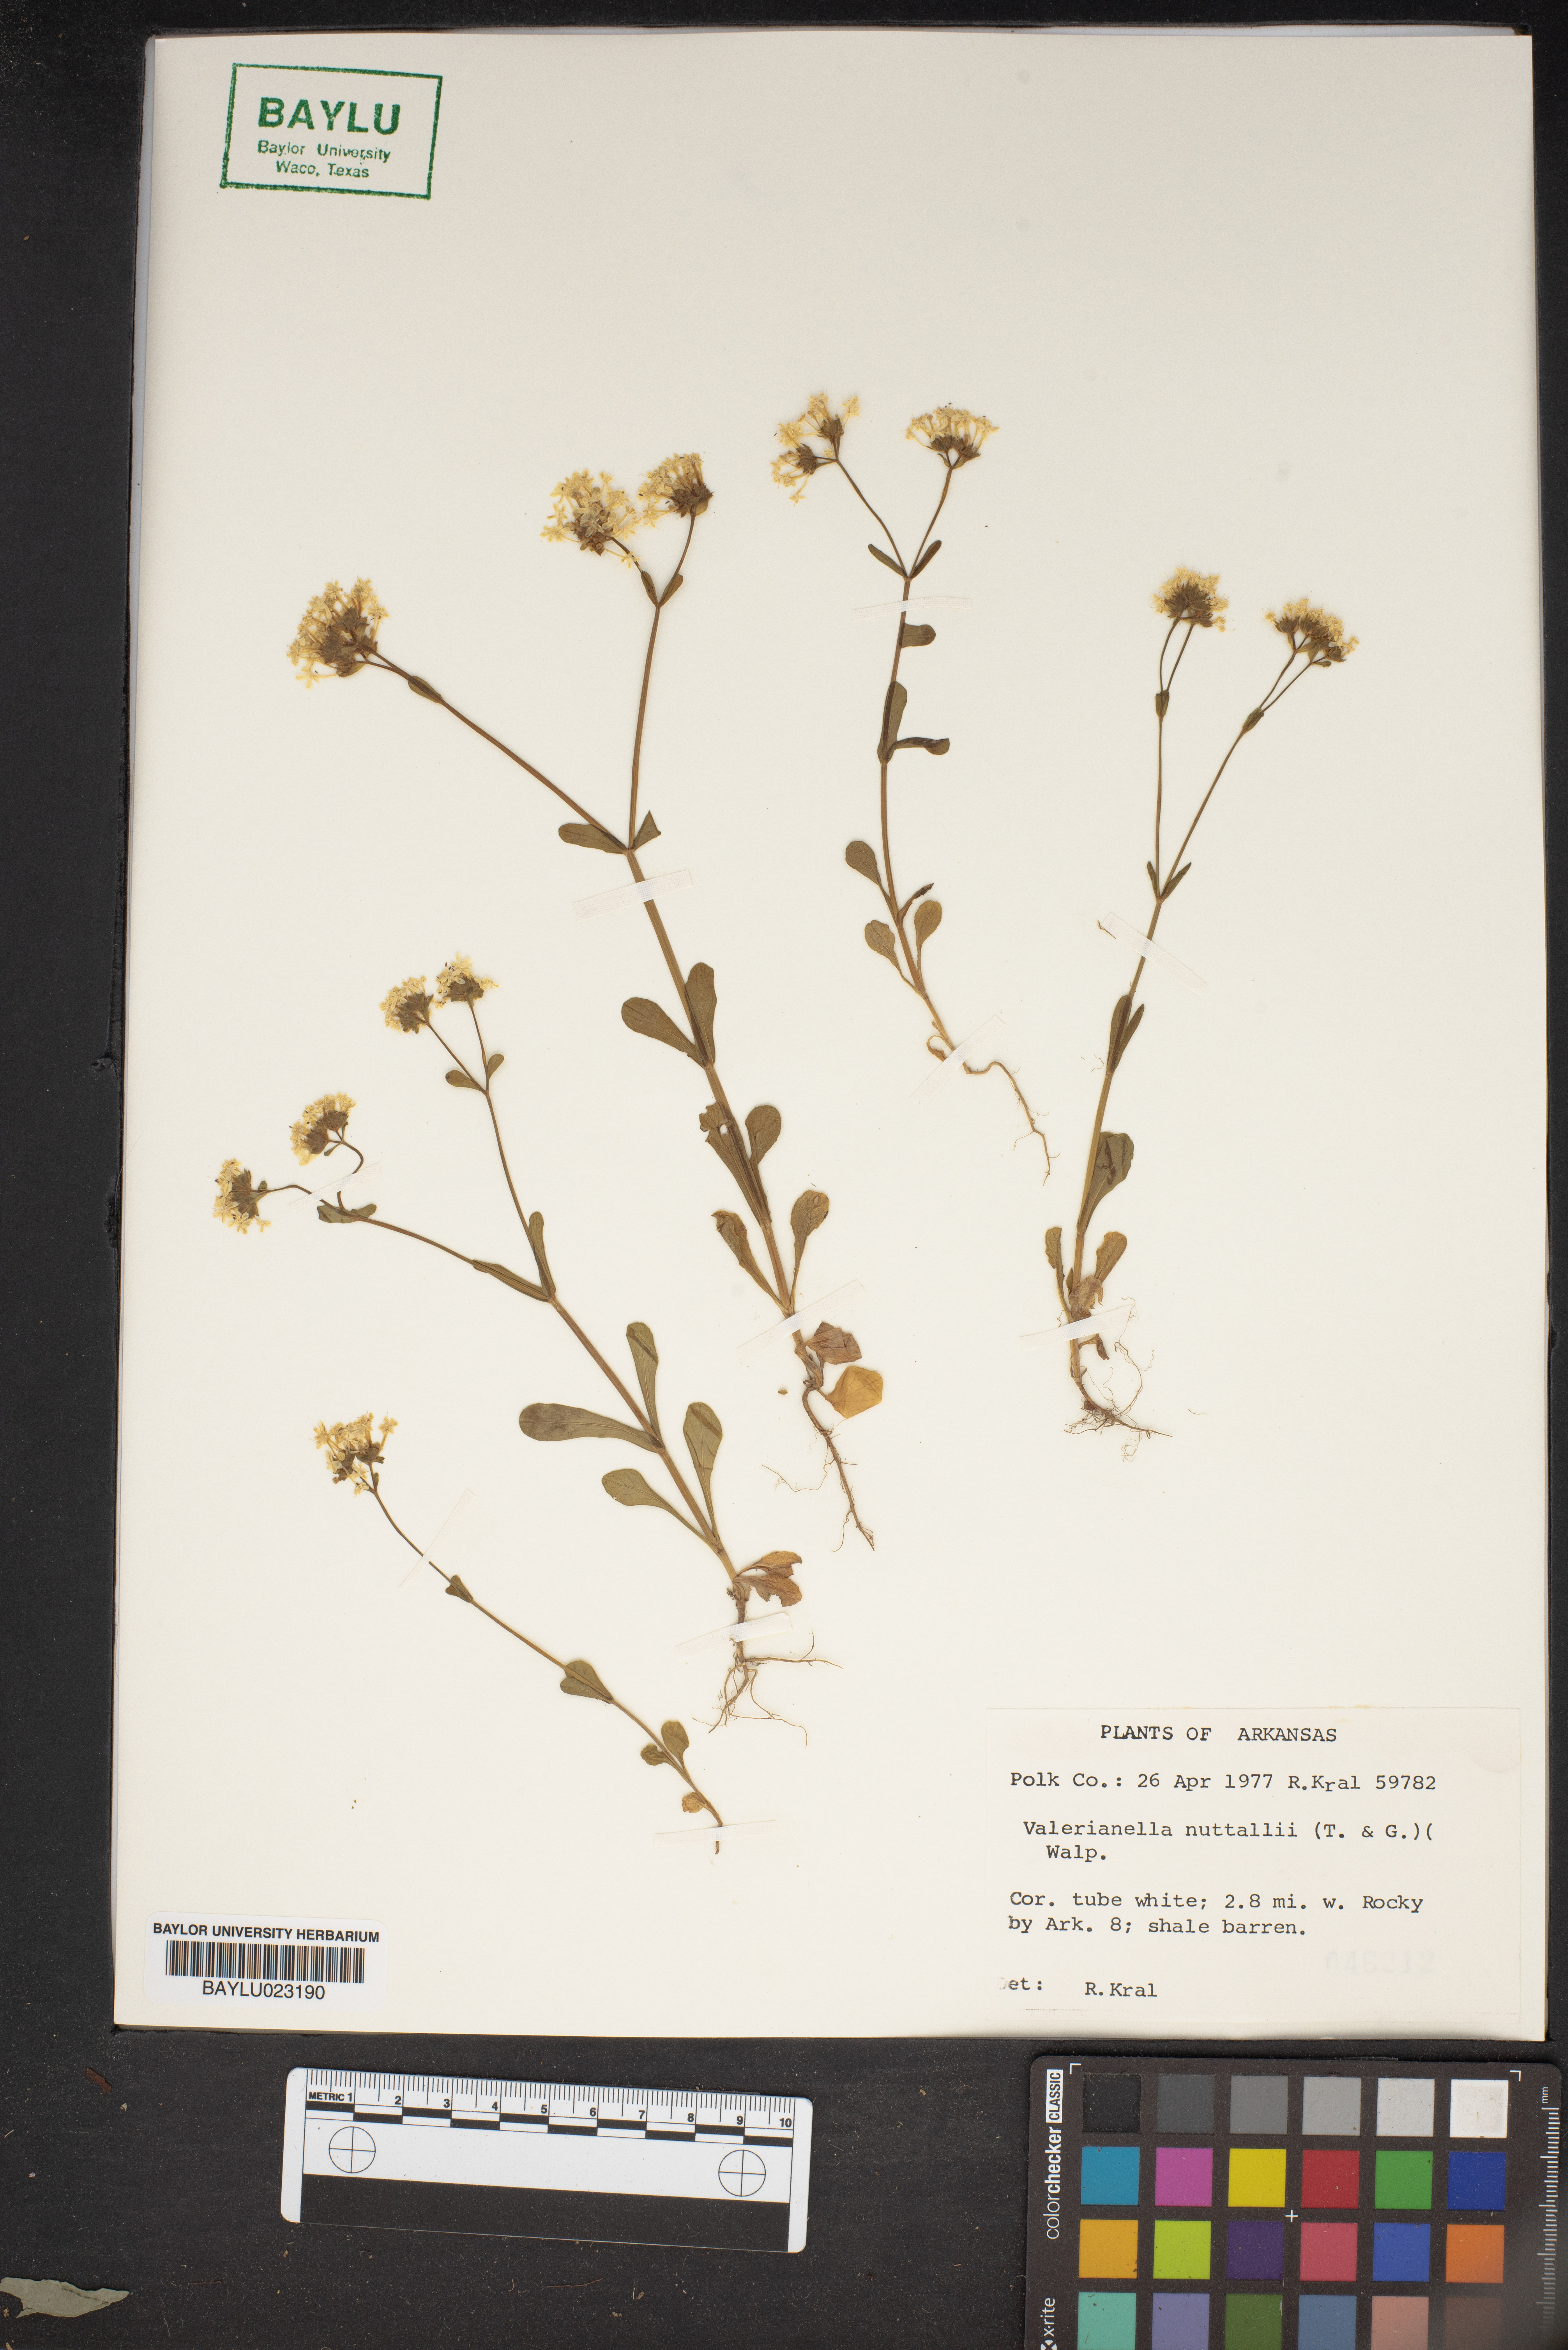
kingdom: Plantae
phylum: Tracheophyta
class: Magnoliopsida
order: Dipsacales
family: Caprifoliaceae
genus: Valerianella
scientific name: Valerianella nuttallii
